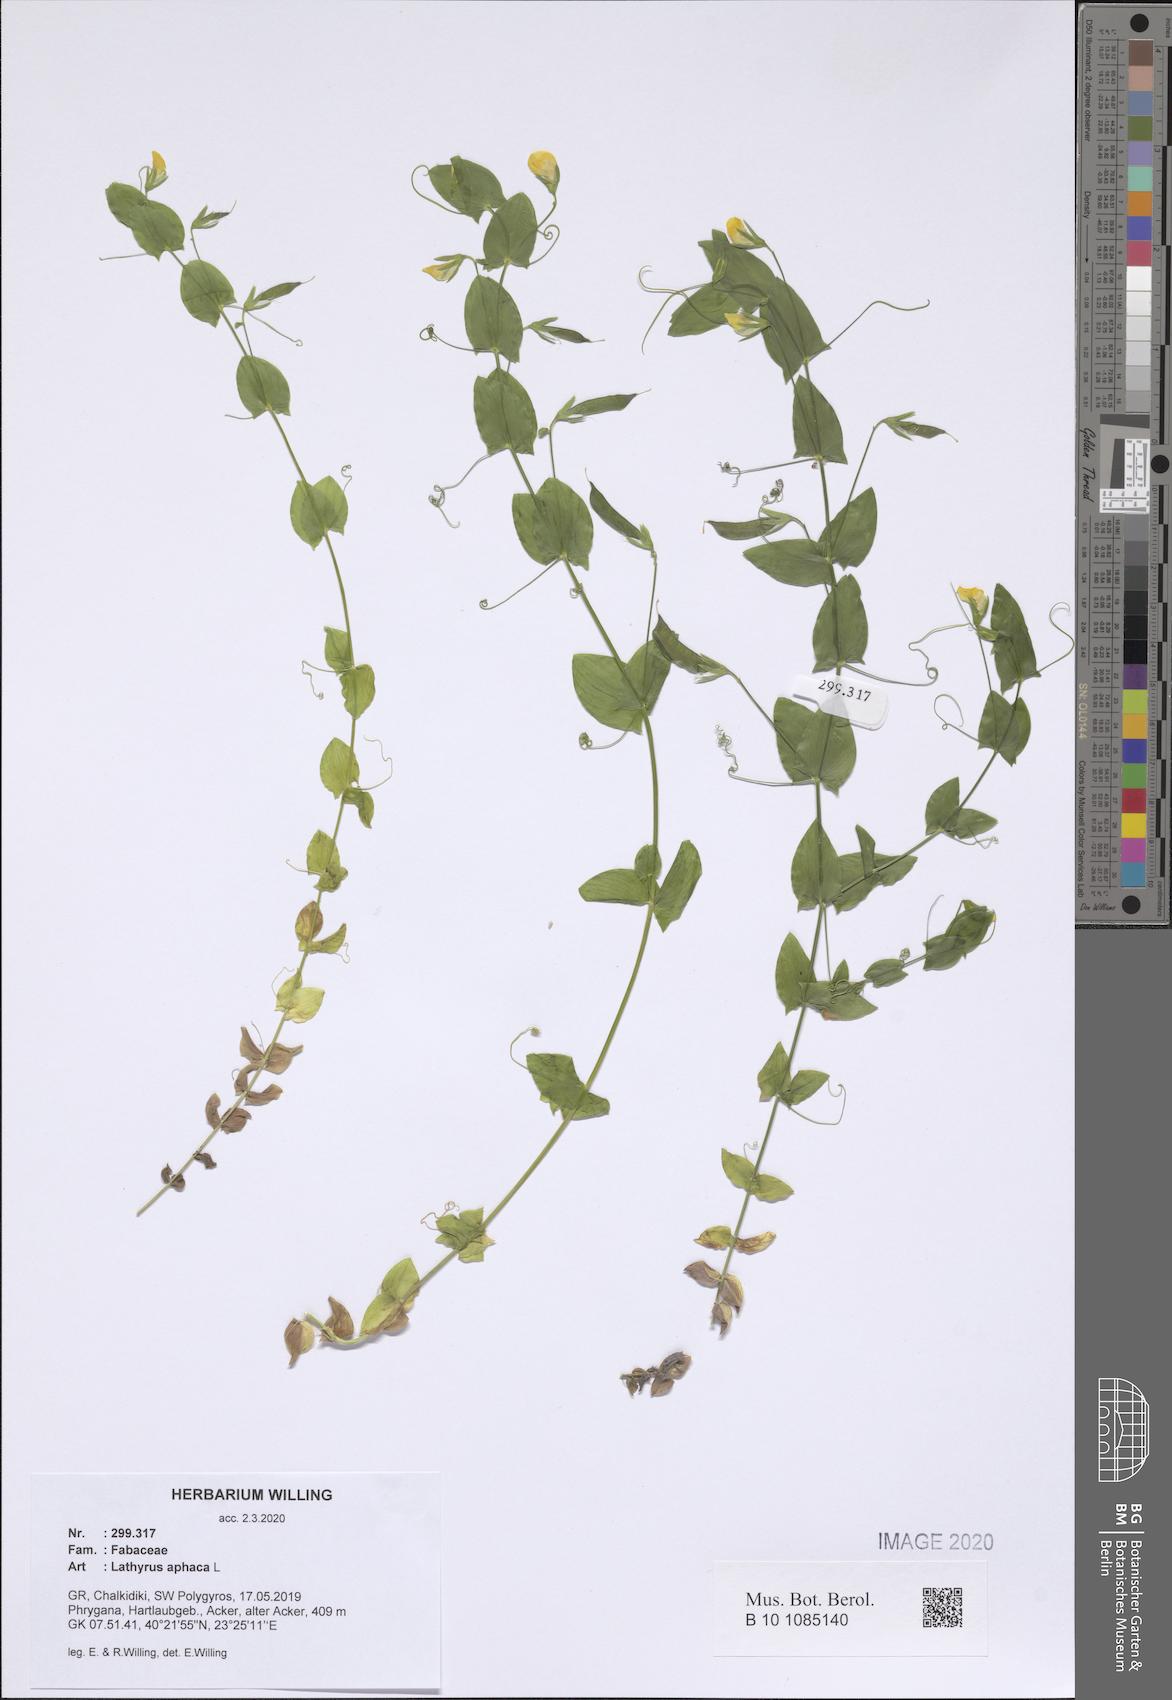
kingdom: Plantae
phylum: Tracheophyta
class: Magnoliopsida
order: Fabales
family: Fabaceae
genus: Lathyrus
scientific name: Lathyrus aphaca
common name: Yellow vetchling
